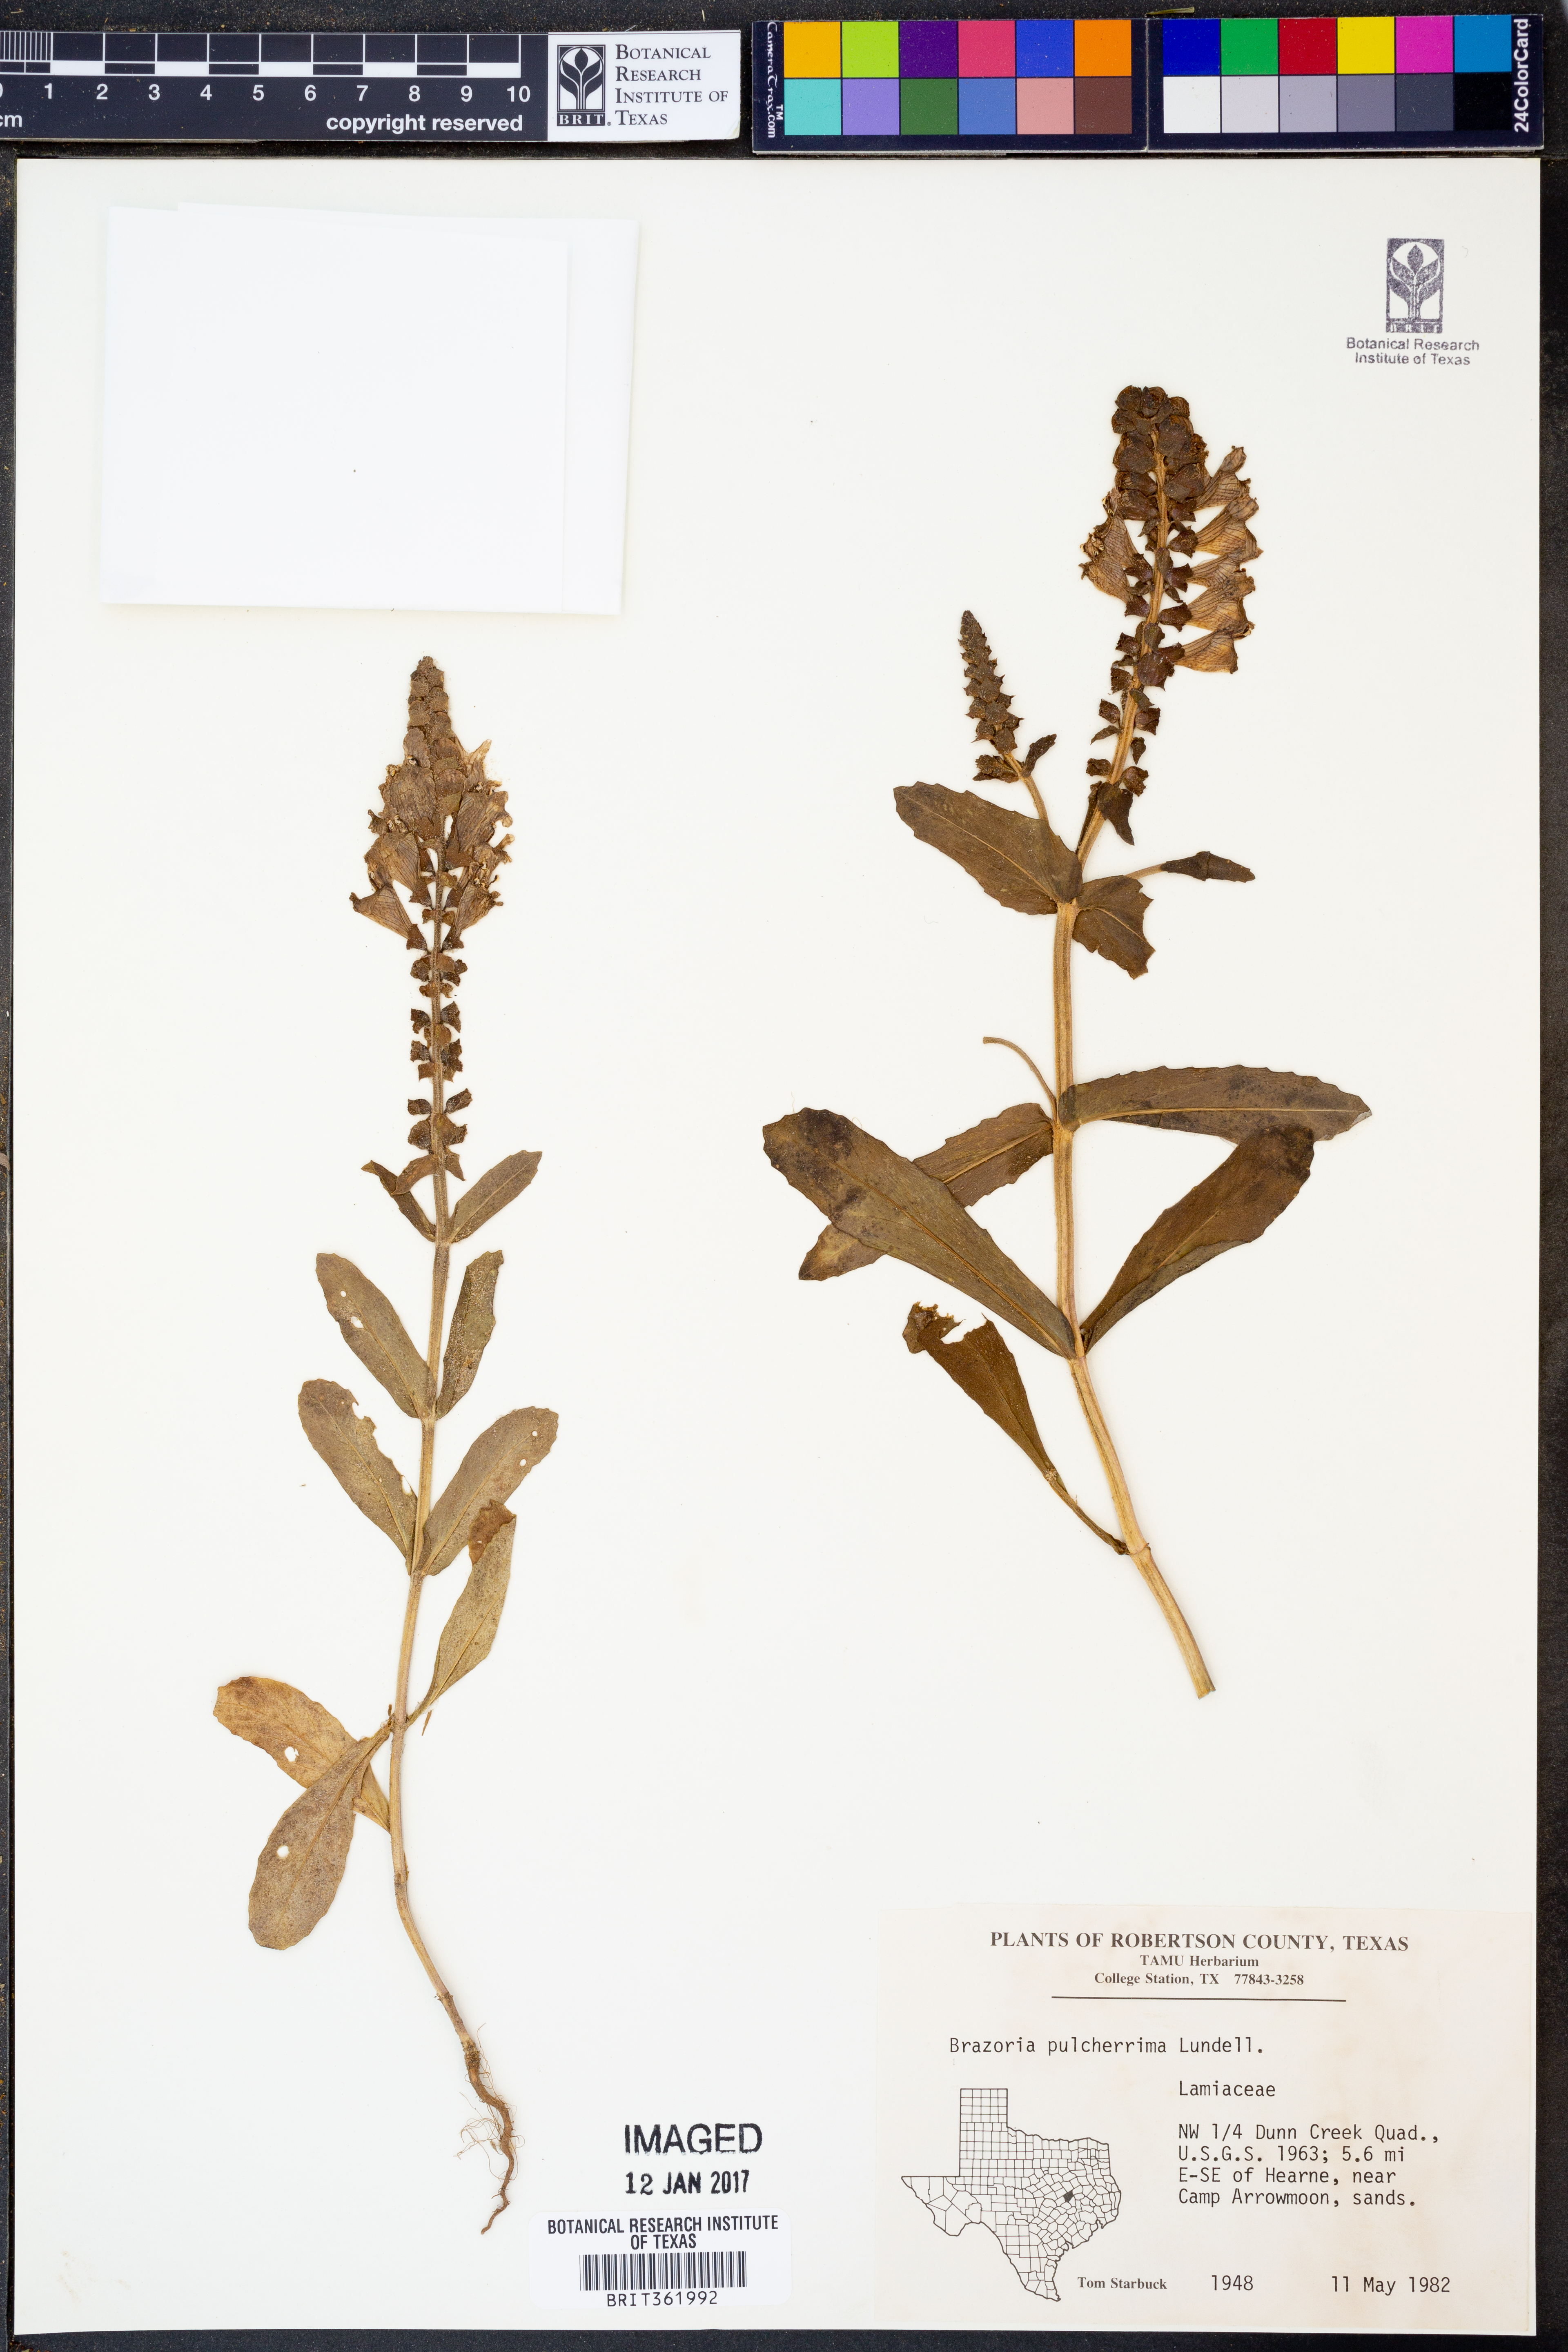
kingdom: Plantae
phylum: Tracheophyta
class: Magnoliopsida
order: Lamiales
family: Lamiaceae
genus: Brazoria
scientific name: Brazoria truncata
